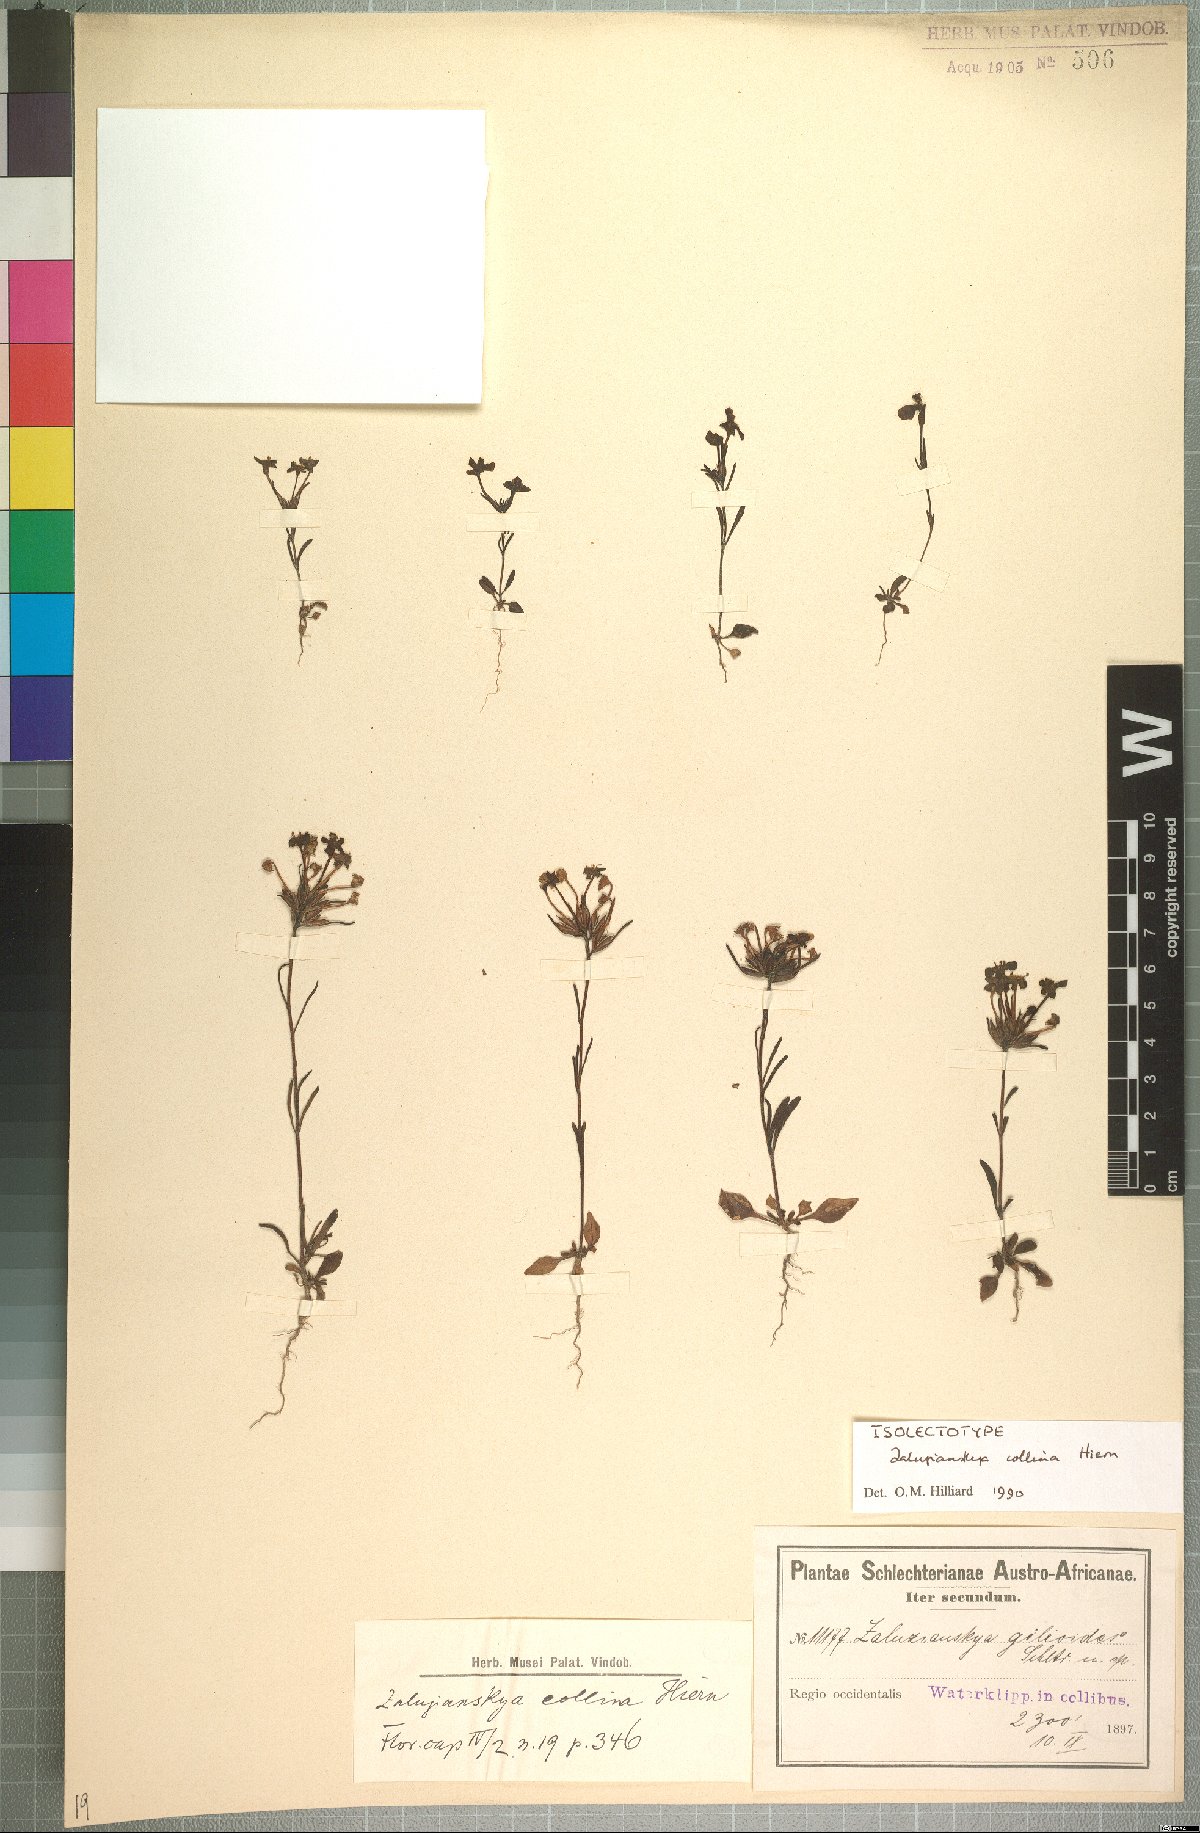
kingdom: Plantae
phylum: Tracheophyta
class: Magnoliopsida
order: Lamiales
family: Scrophulariaceae
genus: Zaluzianskya
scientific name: Zaluzianskya pusilla
